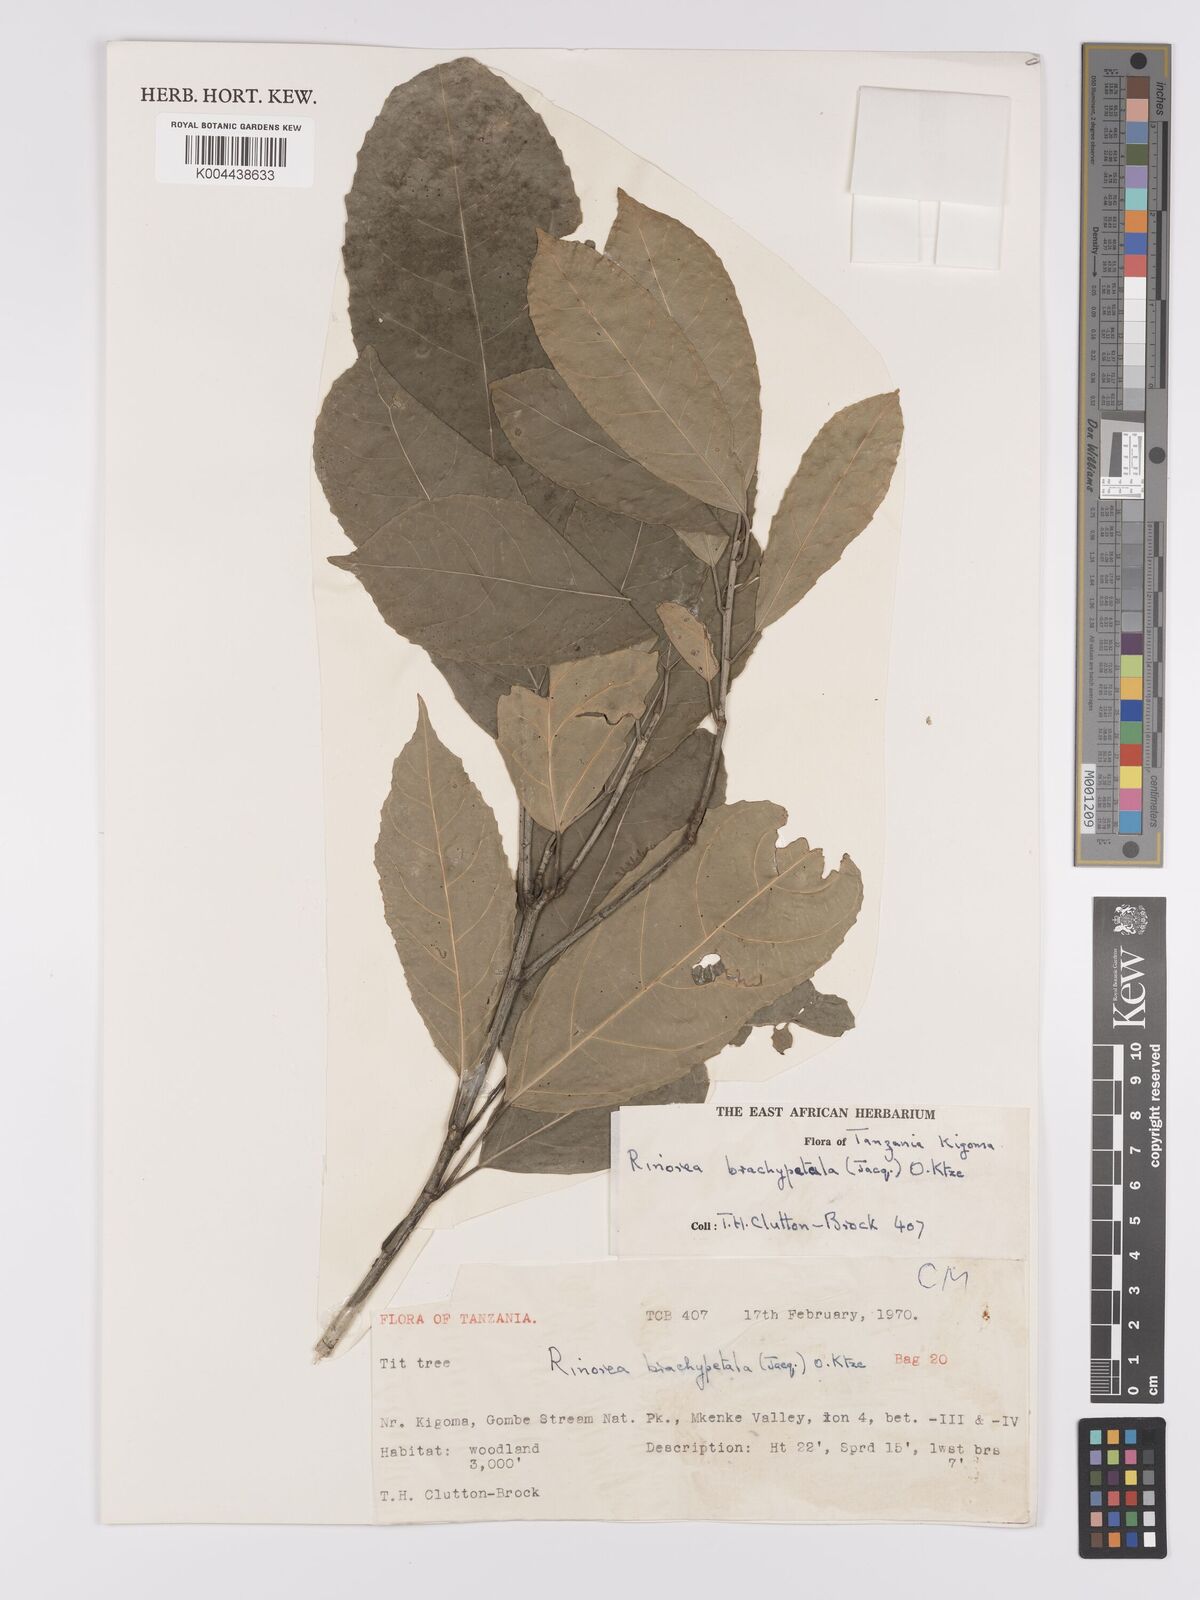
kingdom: Plantae
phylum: Tracheophyta
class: Magnoliopsida
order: Malpighiales
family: Violaceae
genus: Rinorea
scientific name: Rinorea brachypetala
